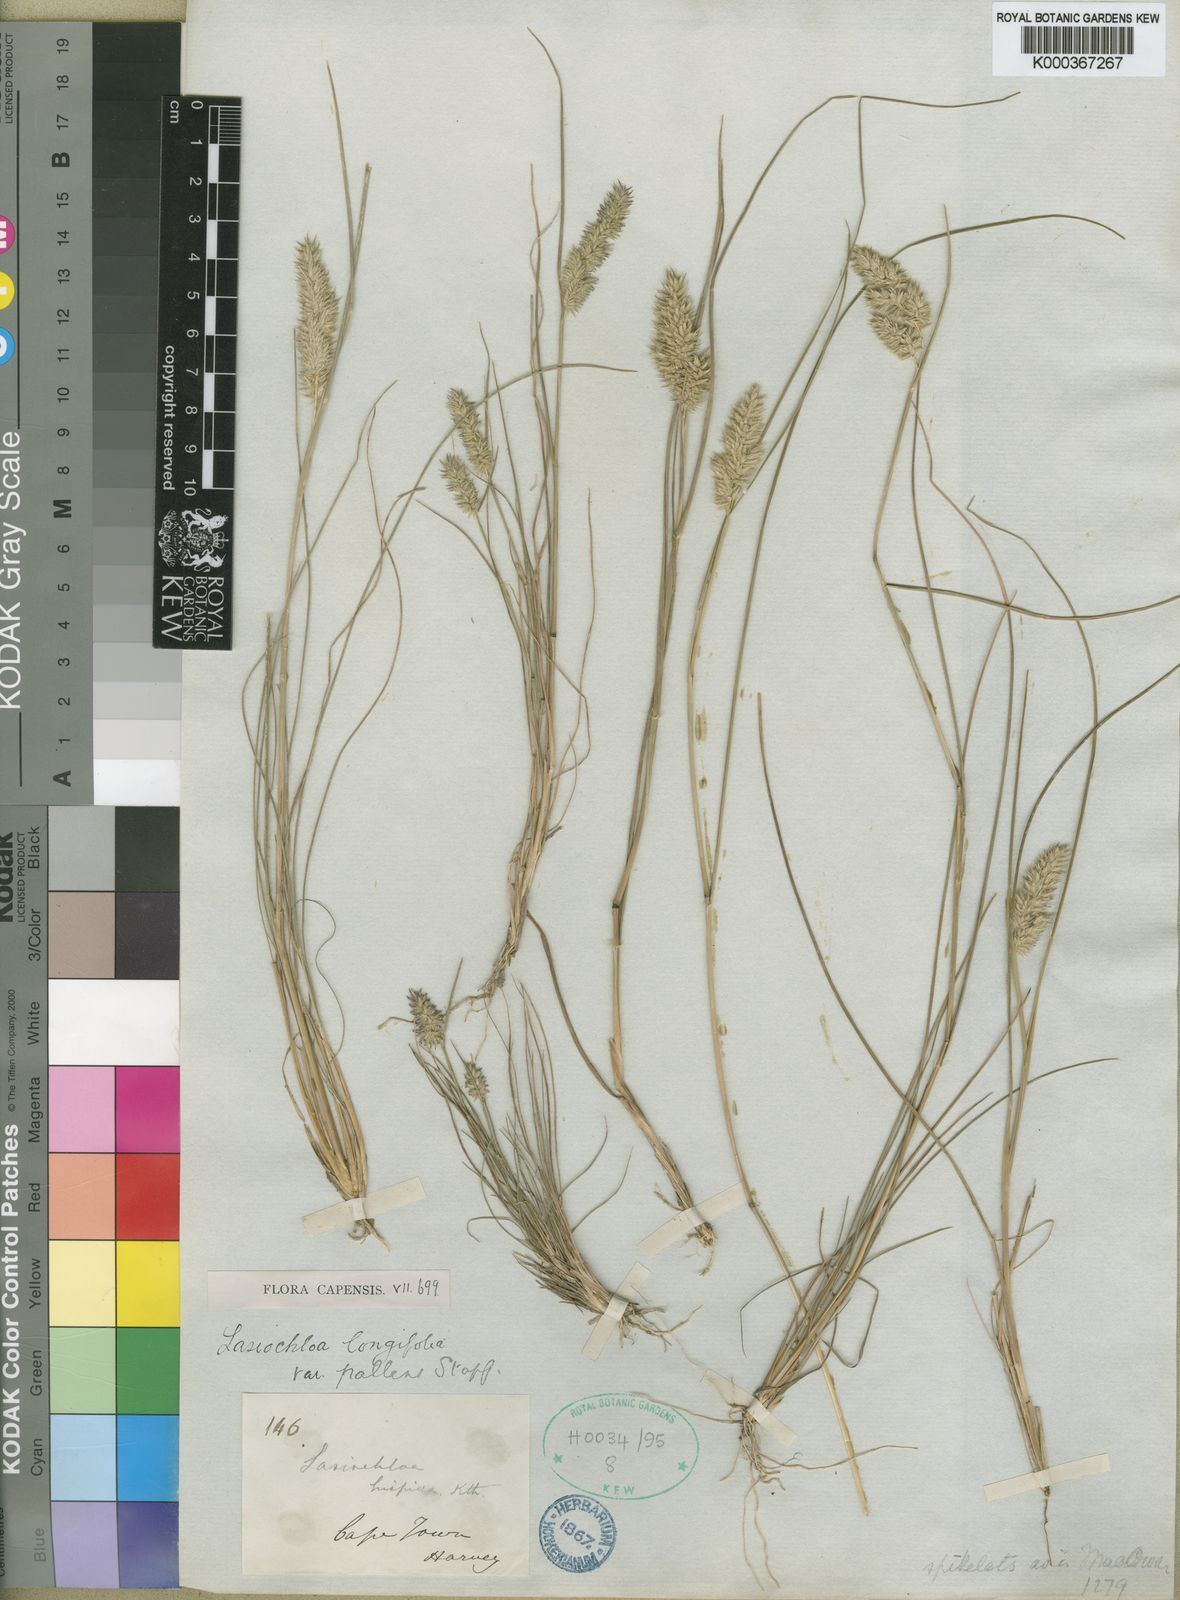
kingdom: Plantae
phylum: Tracheophyta
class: Liliopsida
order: Poales
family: Poaceae
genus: Tribolium
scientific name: Tribolium hispidum
